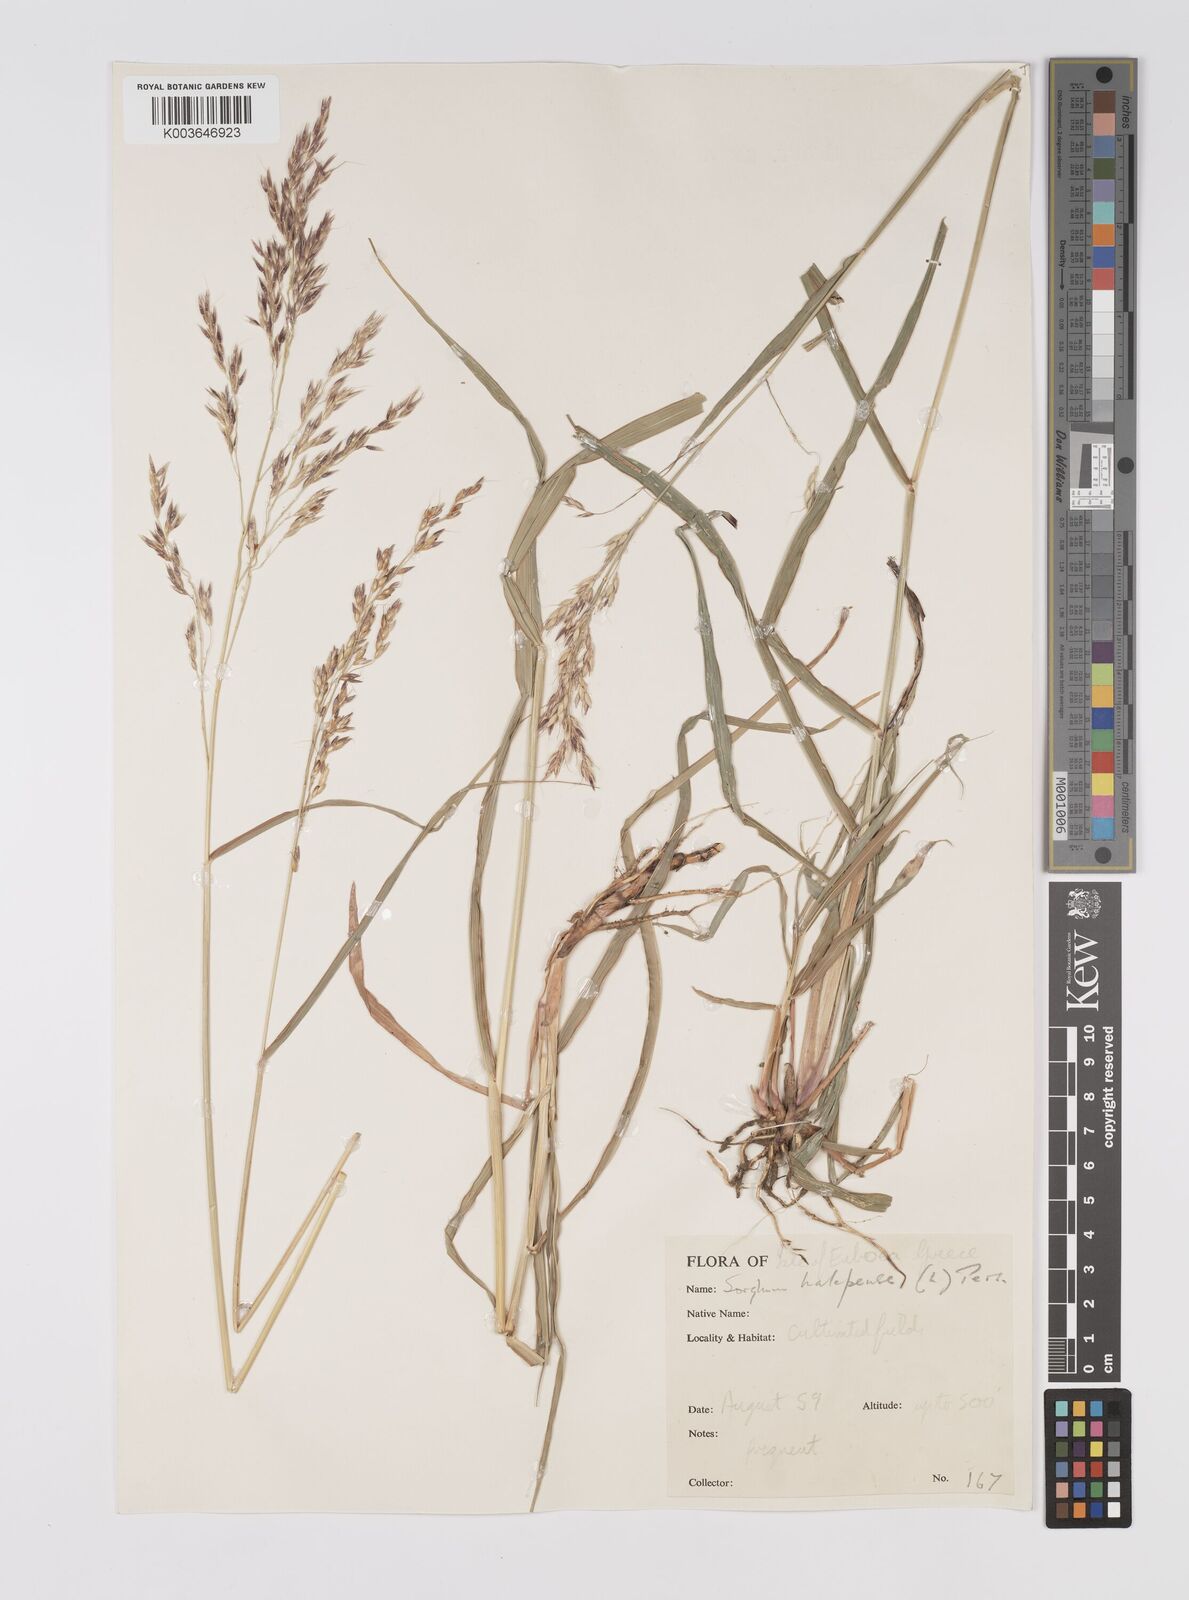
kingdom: Plantae
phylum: Tracheophyta
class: Liliopsida
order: Poales
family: Poaceae
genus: Sorghum
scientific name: Sorghum halepense
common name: Johnson-grass
